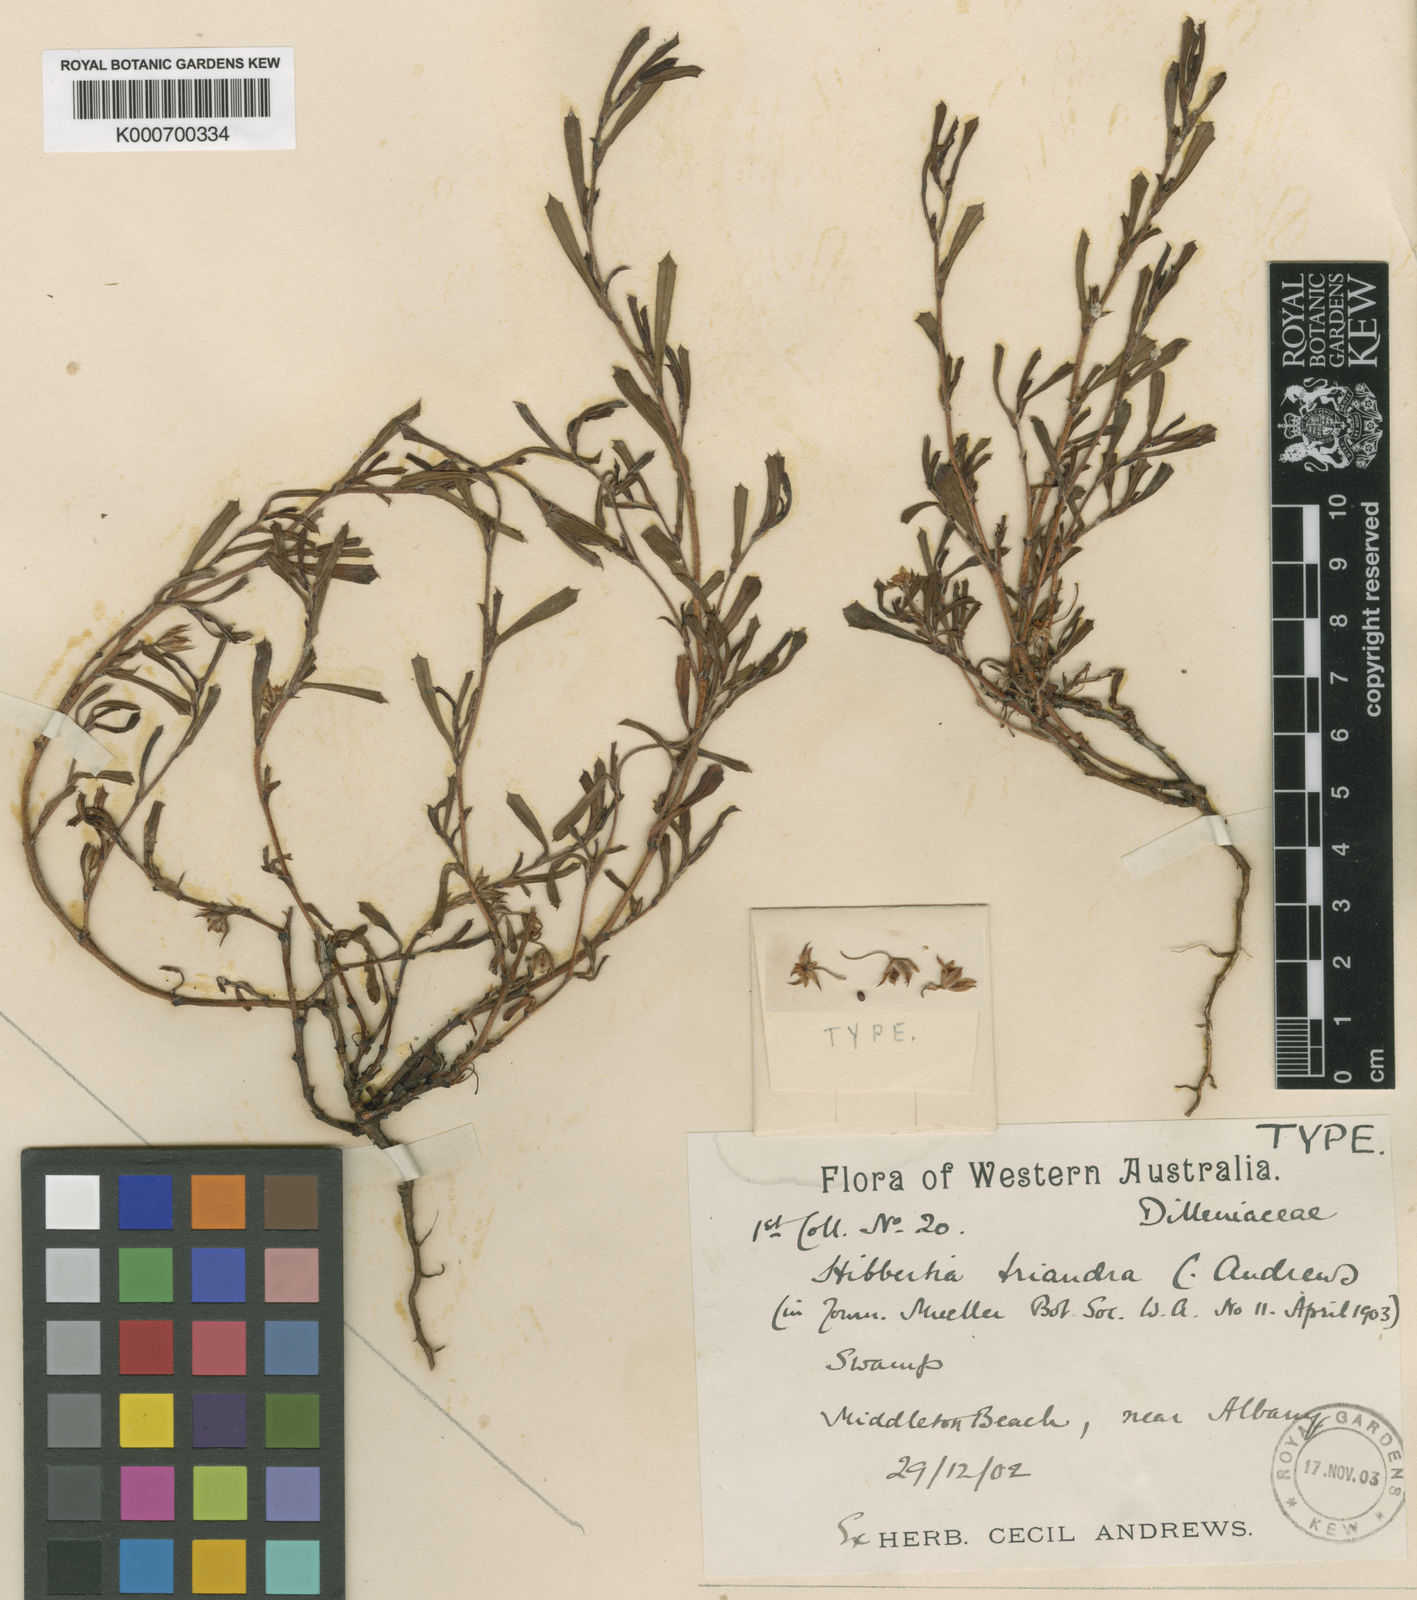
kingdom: Plantae
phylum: Tracheophyta
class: Magnoliopsida
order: Dilleniales
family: Dilleniaceae
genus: Hibbertia
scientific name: Hibbertia acicularis
